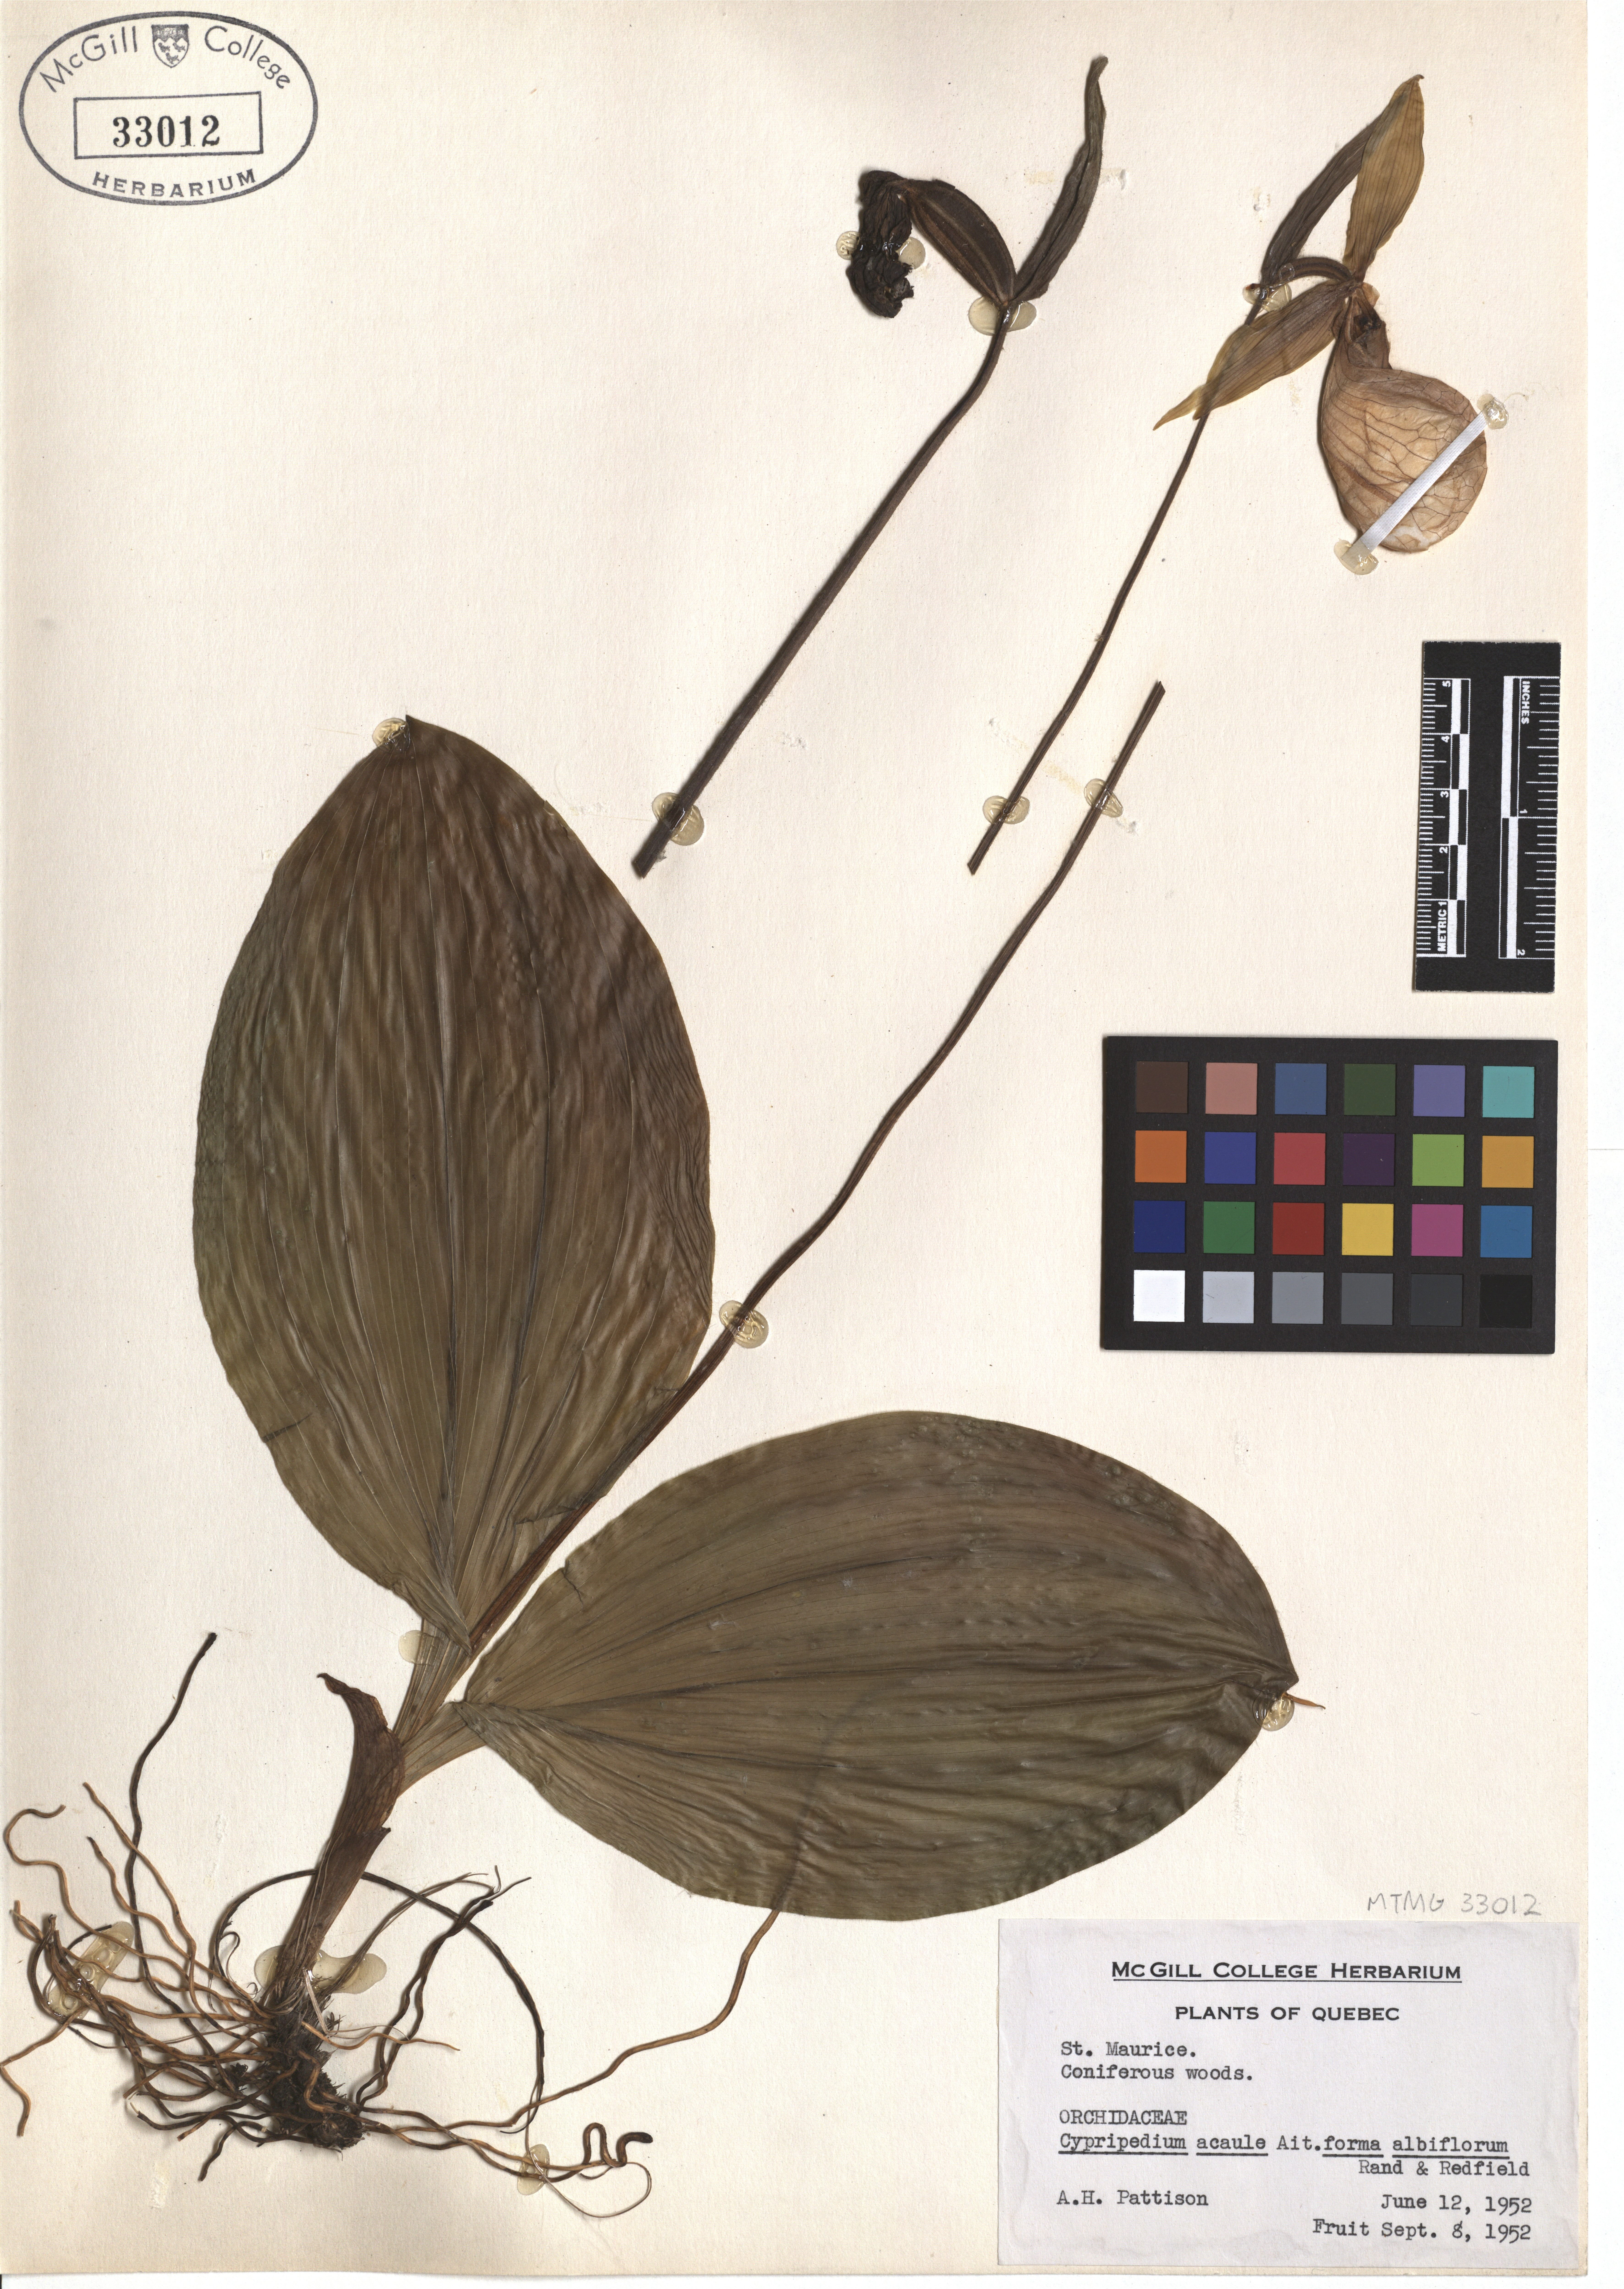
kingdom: Plantae
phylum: Tracheophyta
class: Liliopsida
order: Asparagales
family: Orchidaceae
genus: Cypripedium
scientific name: Cypripedium acaule
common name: Pink lady's-slipper
